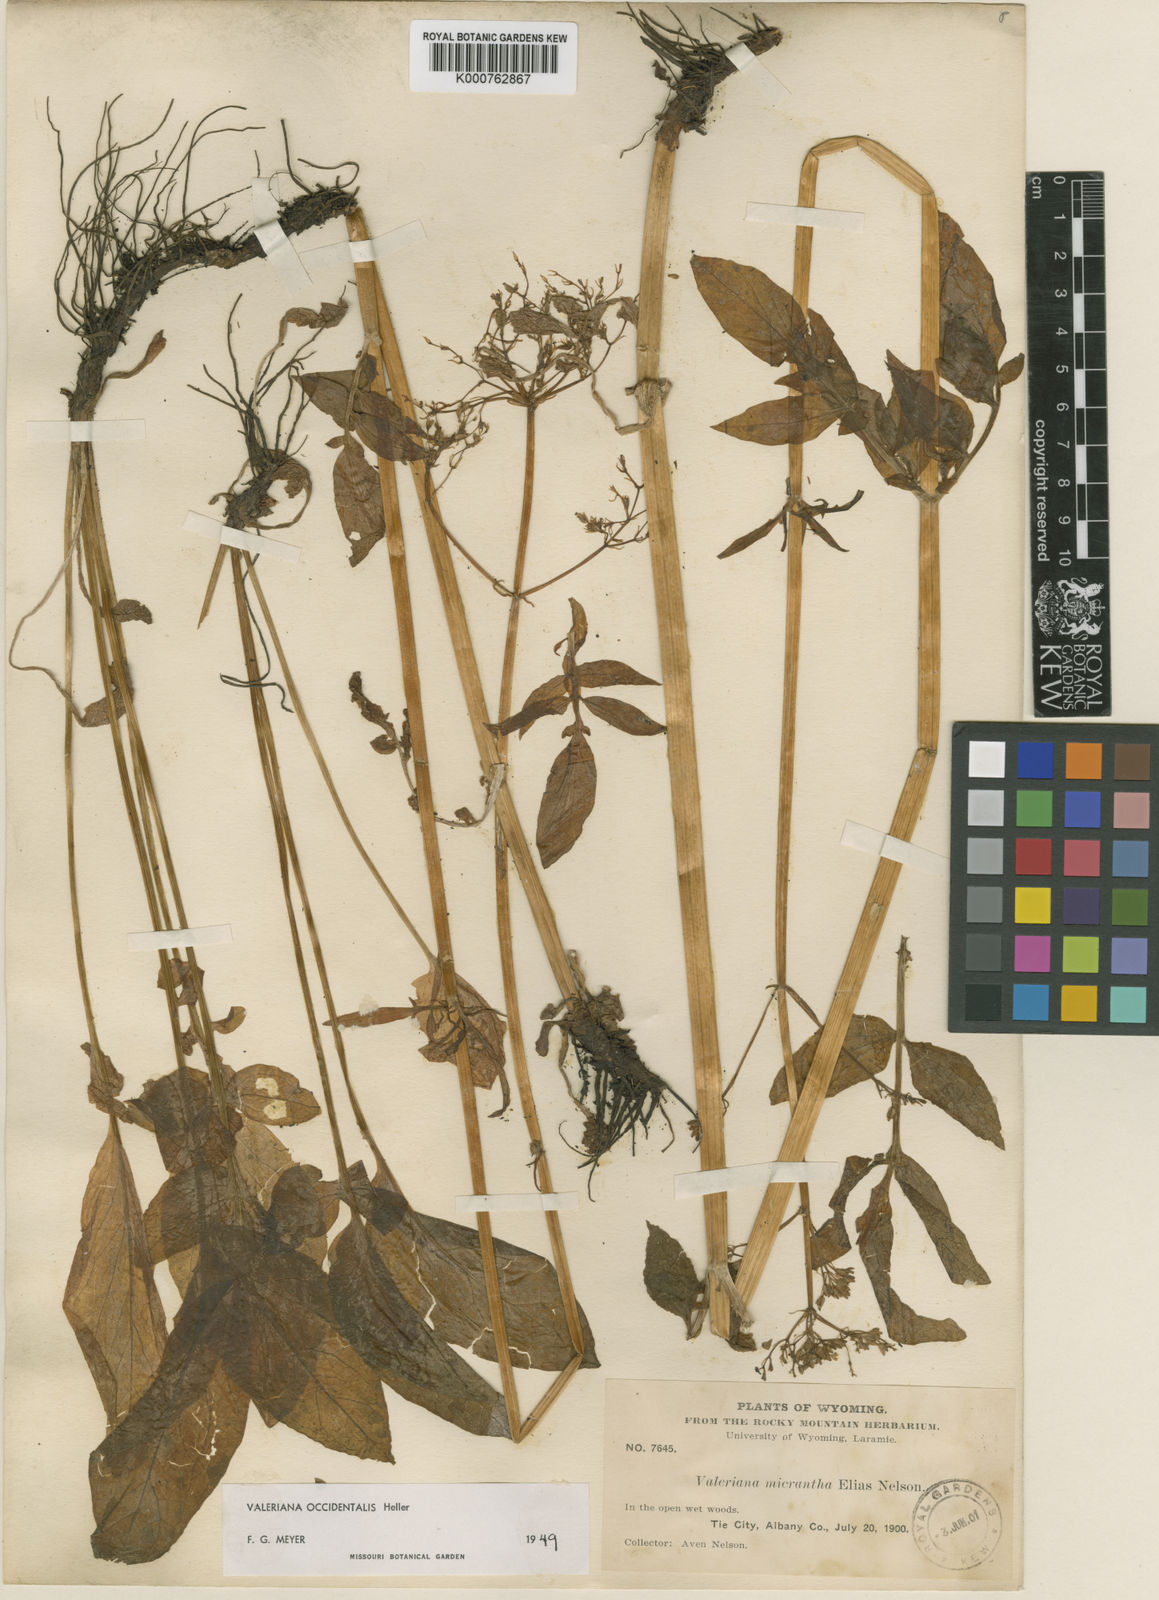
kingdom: Plantae
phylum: Tracheophyta
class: Magnoliopsida
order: Dipsacales
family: Caprifoliaceae
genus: Valeriana
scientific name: Valeriana occidentalis
